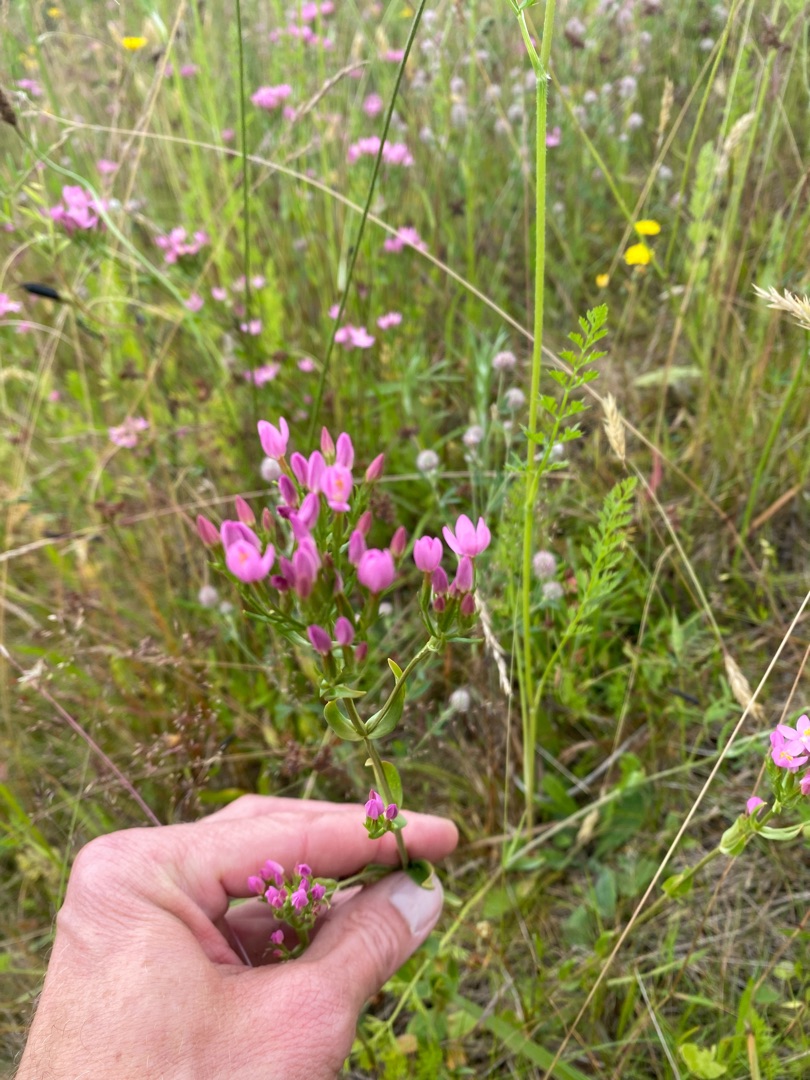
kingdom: Plantae
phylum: Tracheophyta
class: Magnoliopsida
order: Gentianales
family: Gentianaceae
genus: Centaurium
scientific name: Centaurium erythraea
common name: Mark-tusindgylden
